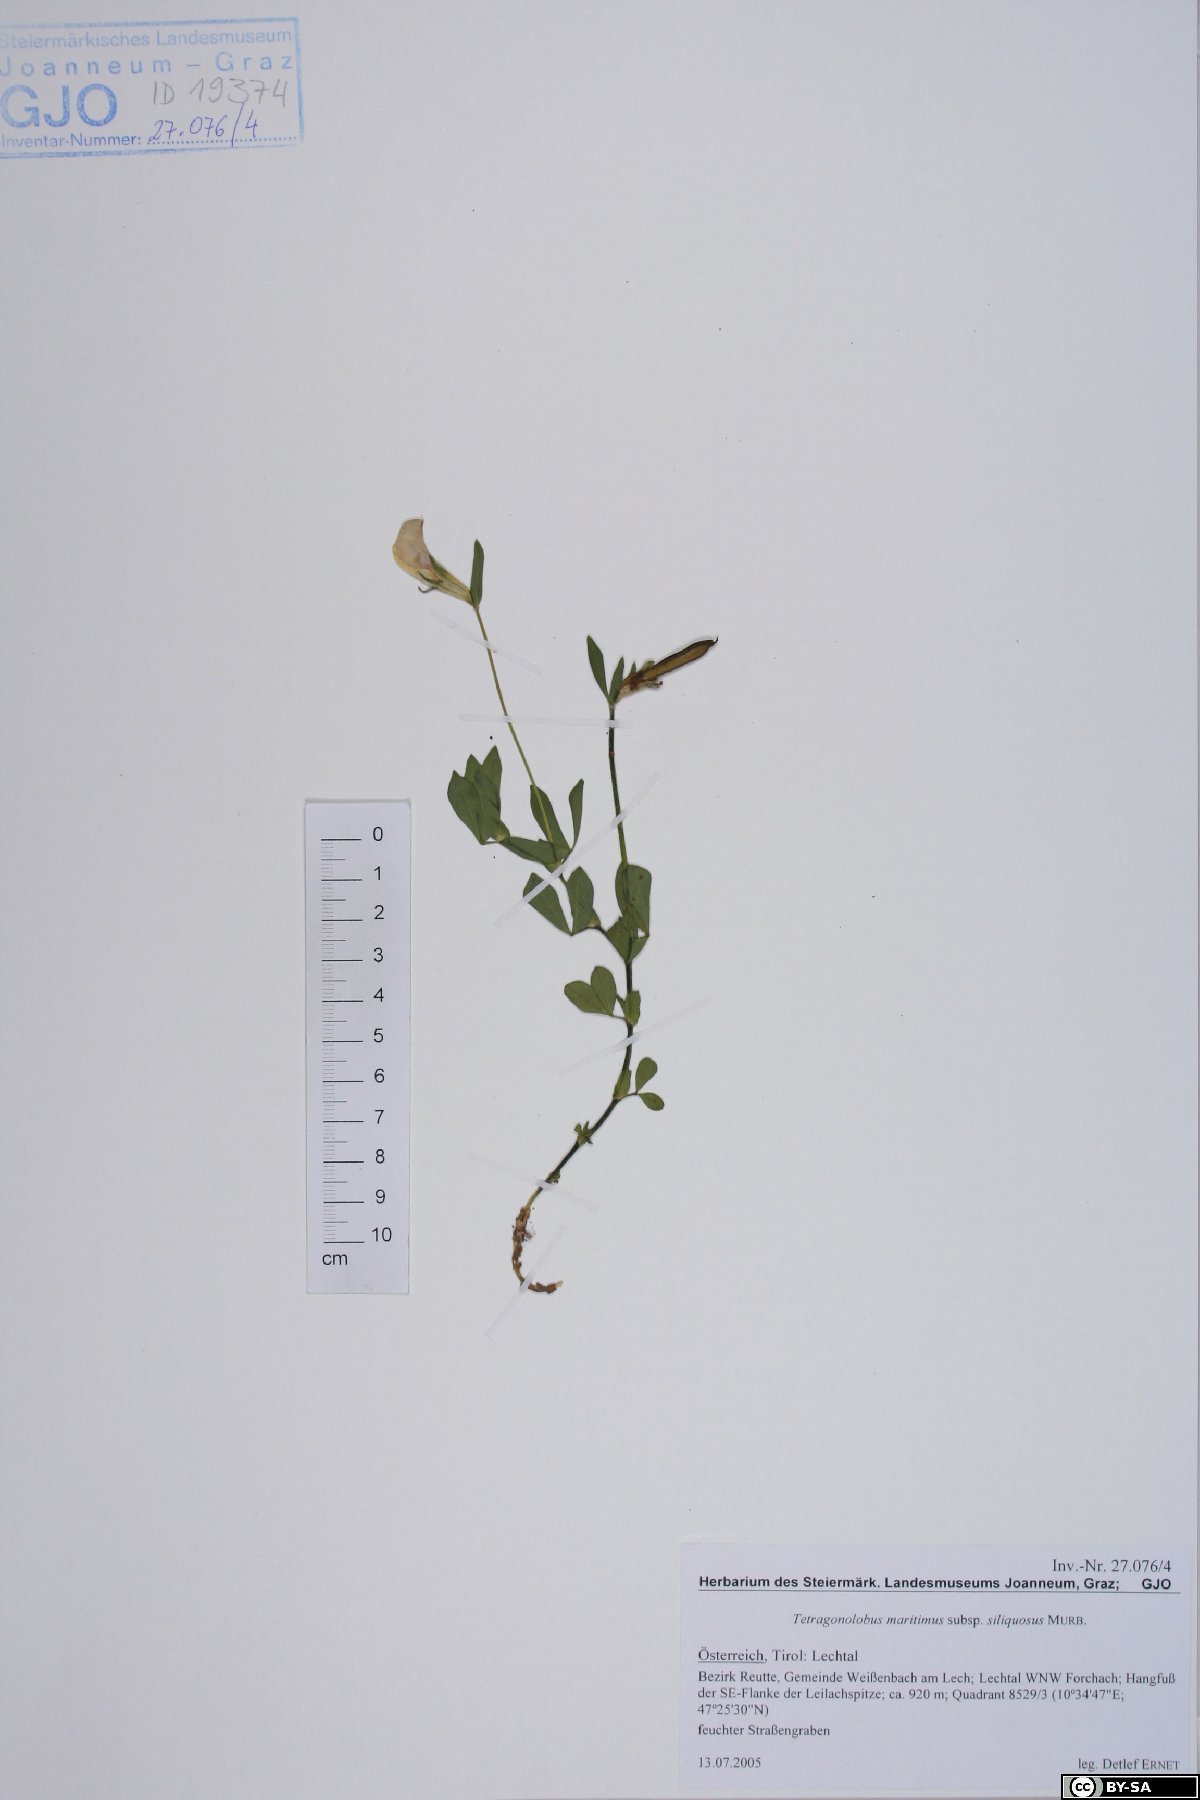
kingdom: Plantae
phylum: Tracheophyta
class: Magnoliopsida
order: Fabales
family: Fabaceae
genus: Lathyrus
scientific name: Lathyrus inconspicuus
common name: Inconspicuous pea
